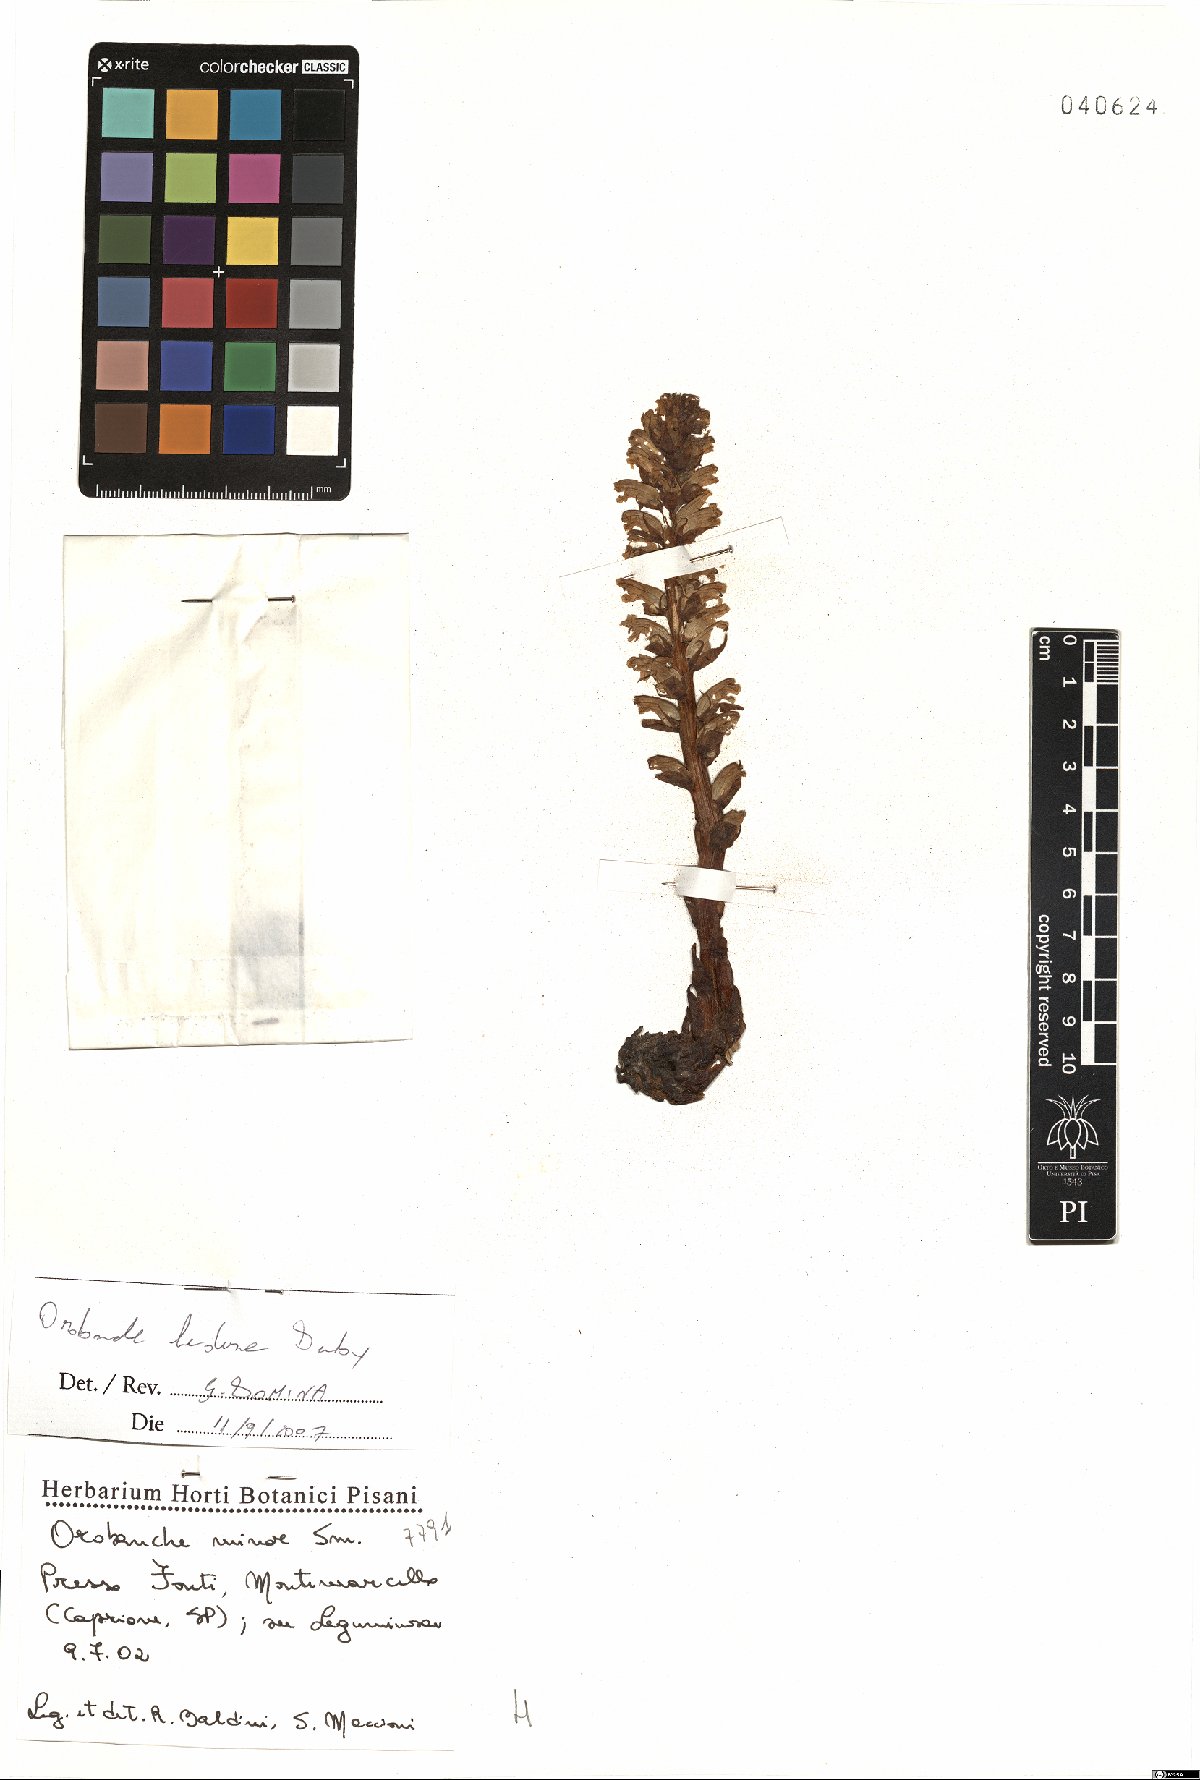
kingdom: Plantae
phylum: Tracheophyta
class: Magnoliopsida
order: Lamiales
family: Orobanchaceae
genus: Orobanche
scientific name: Orobanche hederae
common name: Ivy broomrape
